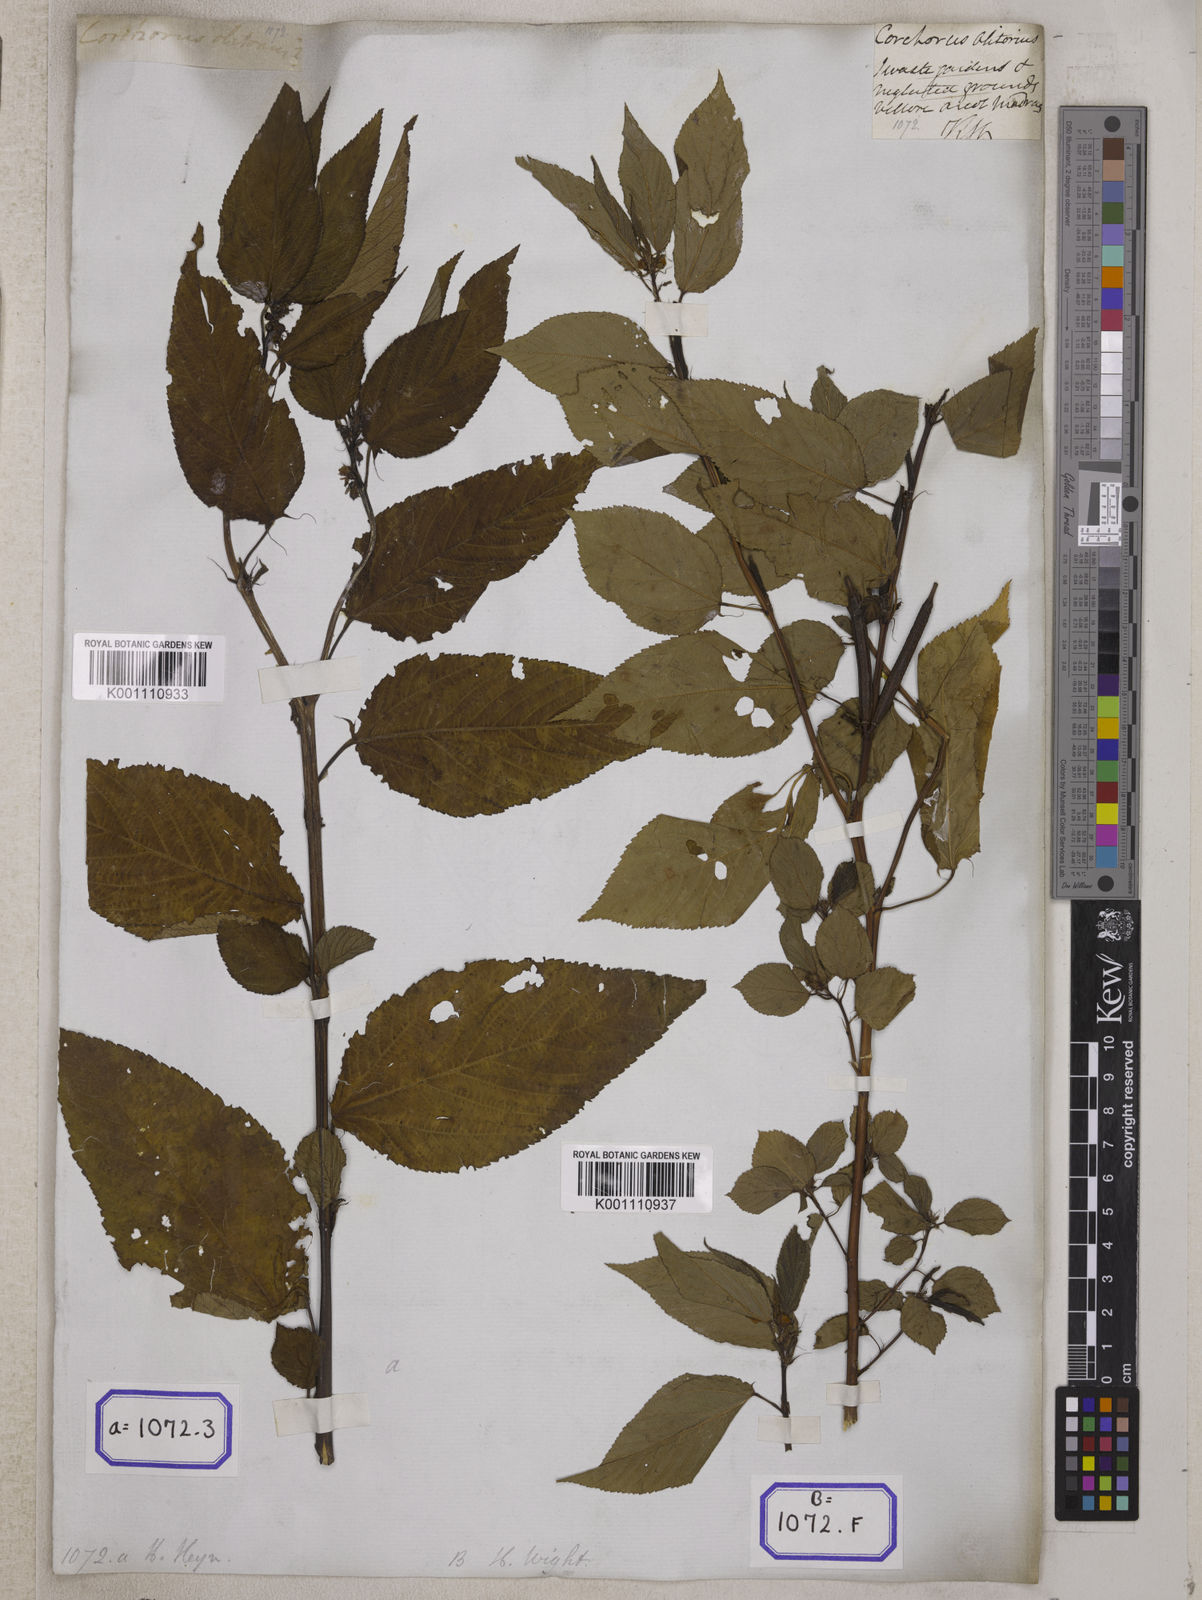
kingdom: Plantae
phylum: Tracheophyta
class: Magnoliopsida
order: Malvales
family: Malvaceae
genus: Corchorus
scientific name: Corchorus olitorius
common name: Tossa jute
